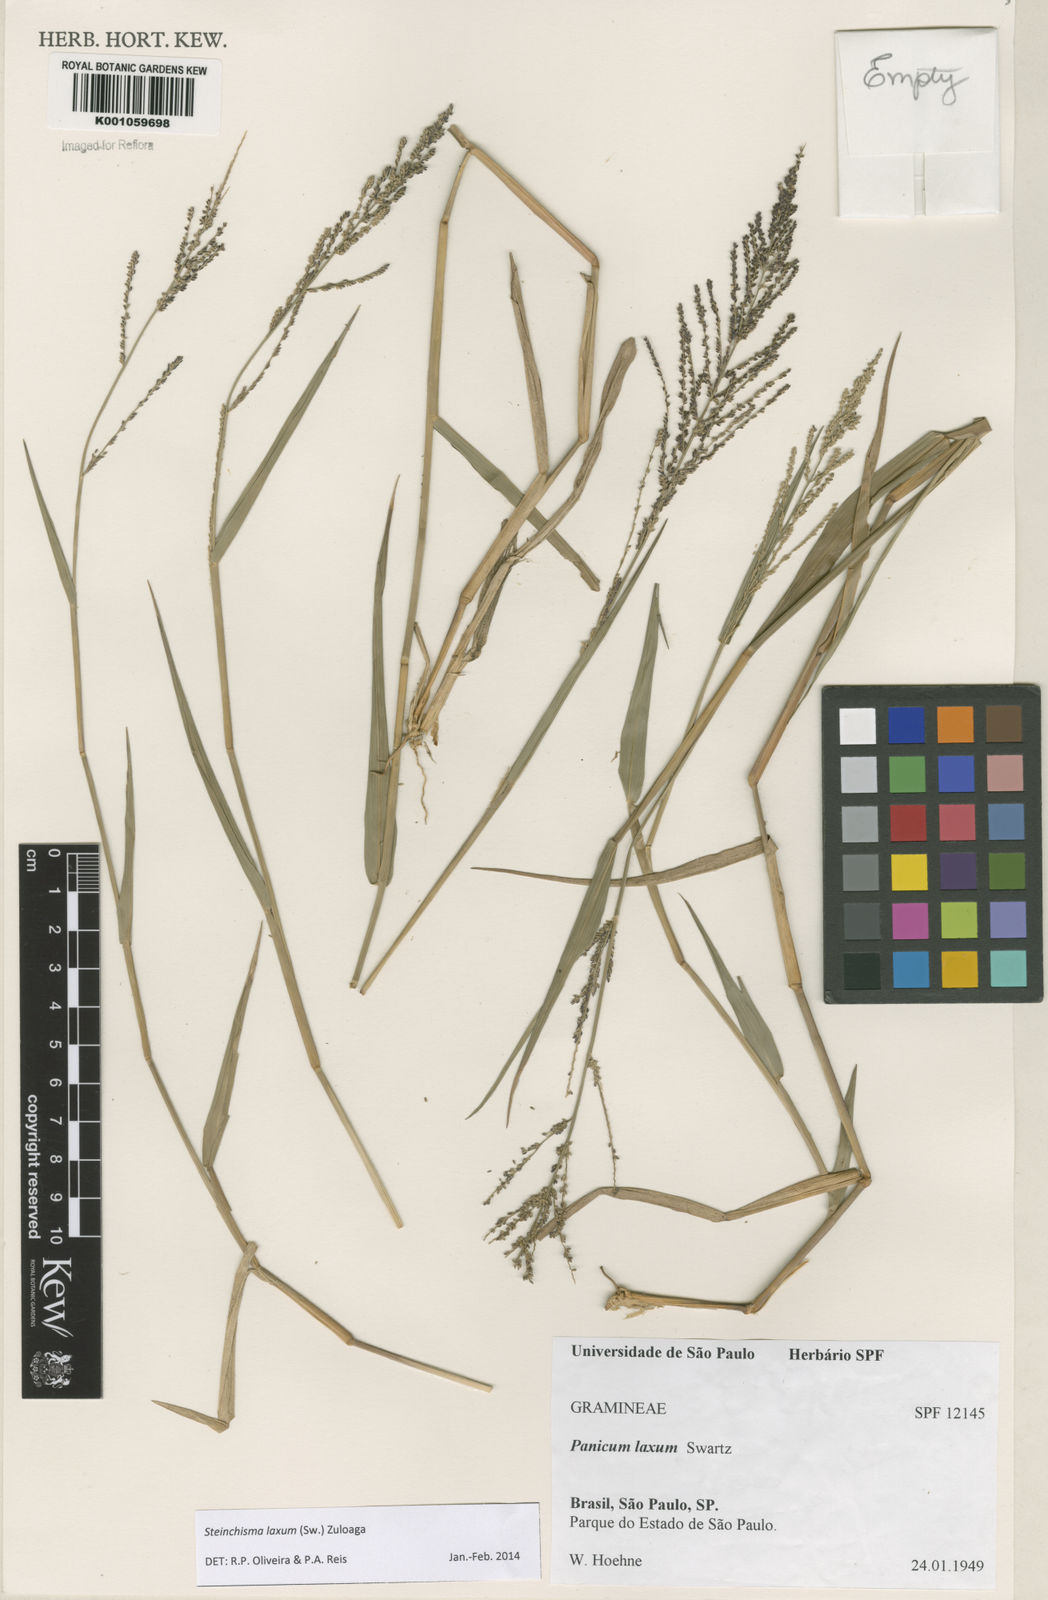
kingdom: Plantae
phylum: Tracheophyta
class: Liliopsida
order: Poales
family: Poaceae
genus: Steinchisma
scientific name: Steinchisma laxum
